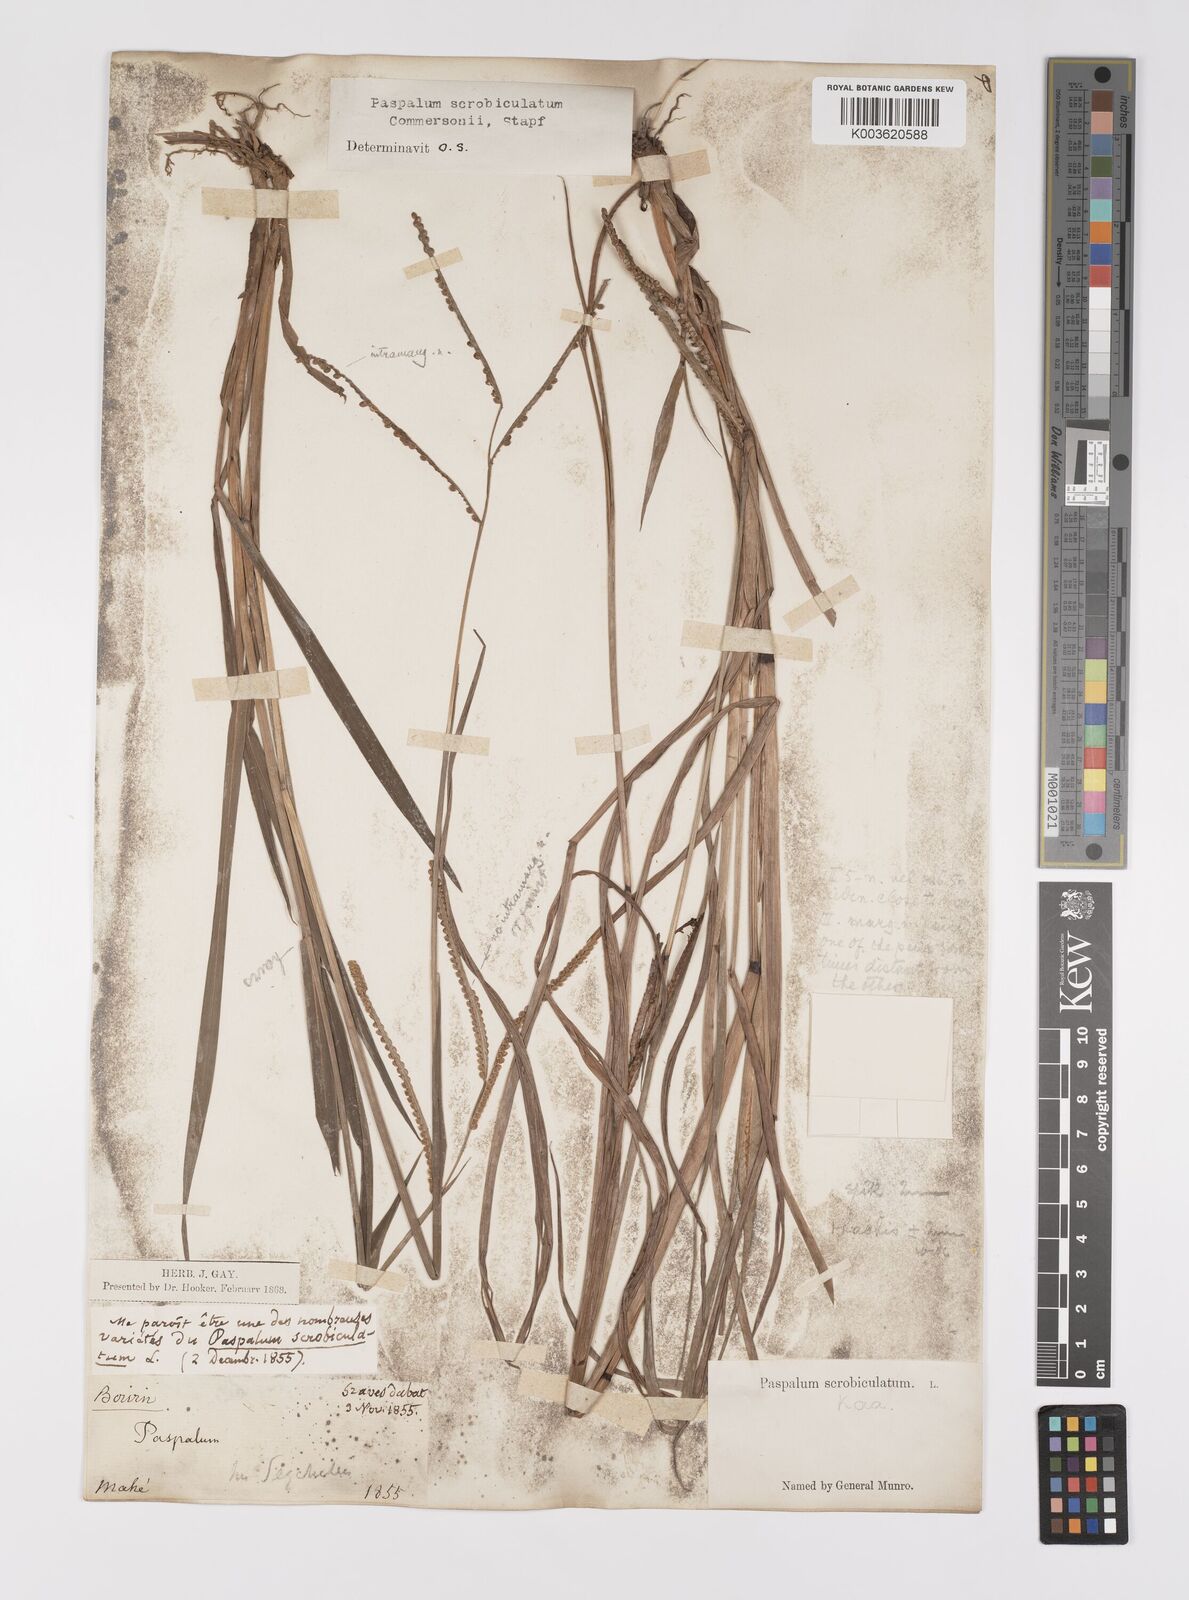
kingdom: Plantae
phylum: Tracheophyta
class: Liliopsida
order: Poales
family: Poaceae
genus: Paspalum
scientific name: Paspalum scrobiculatum
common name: Kodo millet
